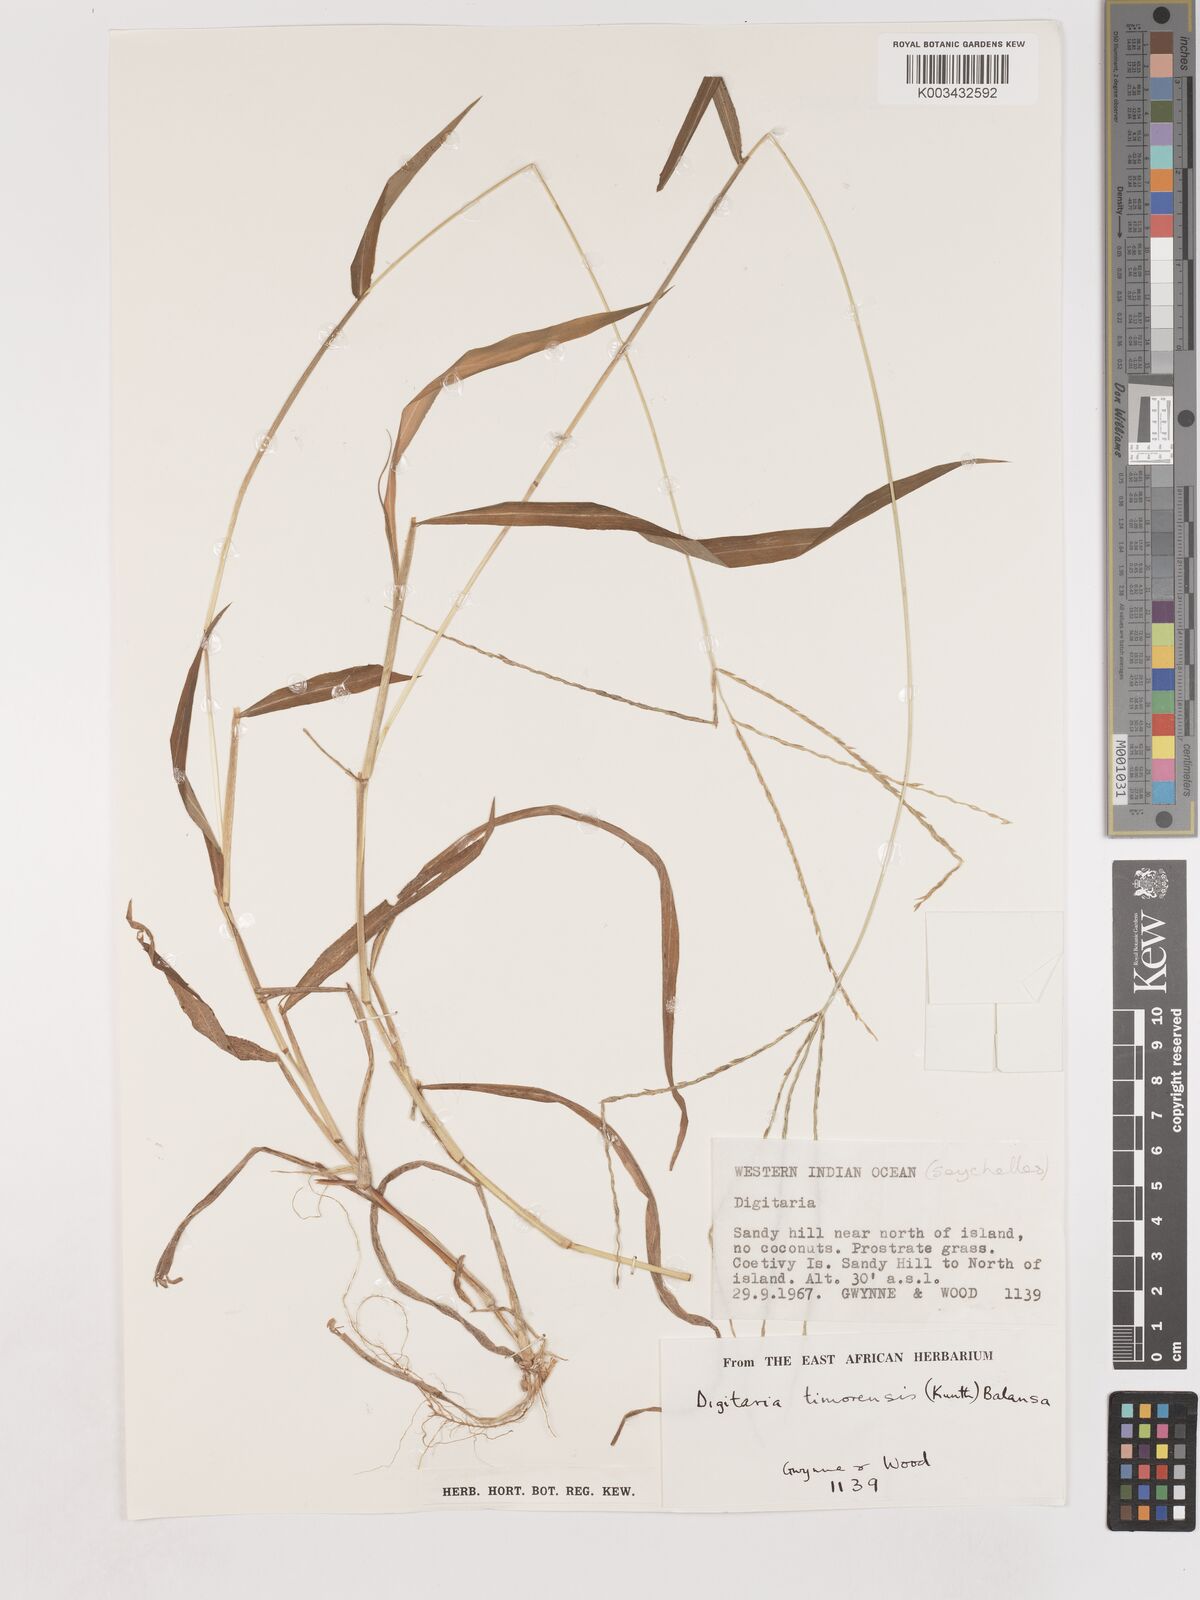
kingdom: Plantae
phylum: Tracheophyta
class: Liliopsida
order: Poales
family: Poaceae
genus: Digitaria
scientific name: Digitaria setigera
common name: East indian crabgrass
